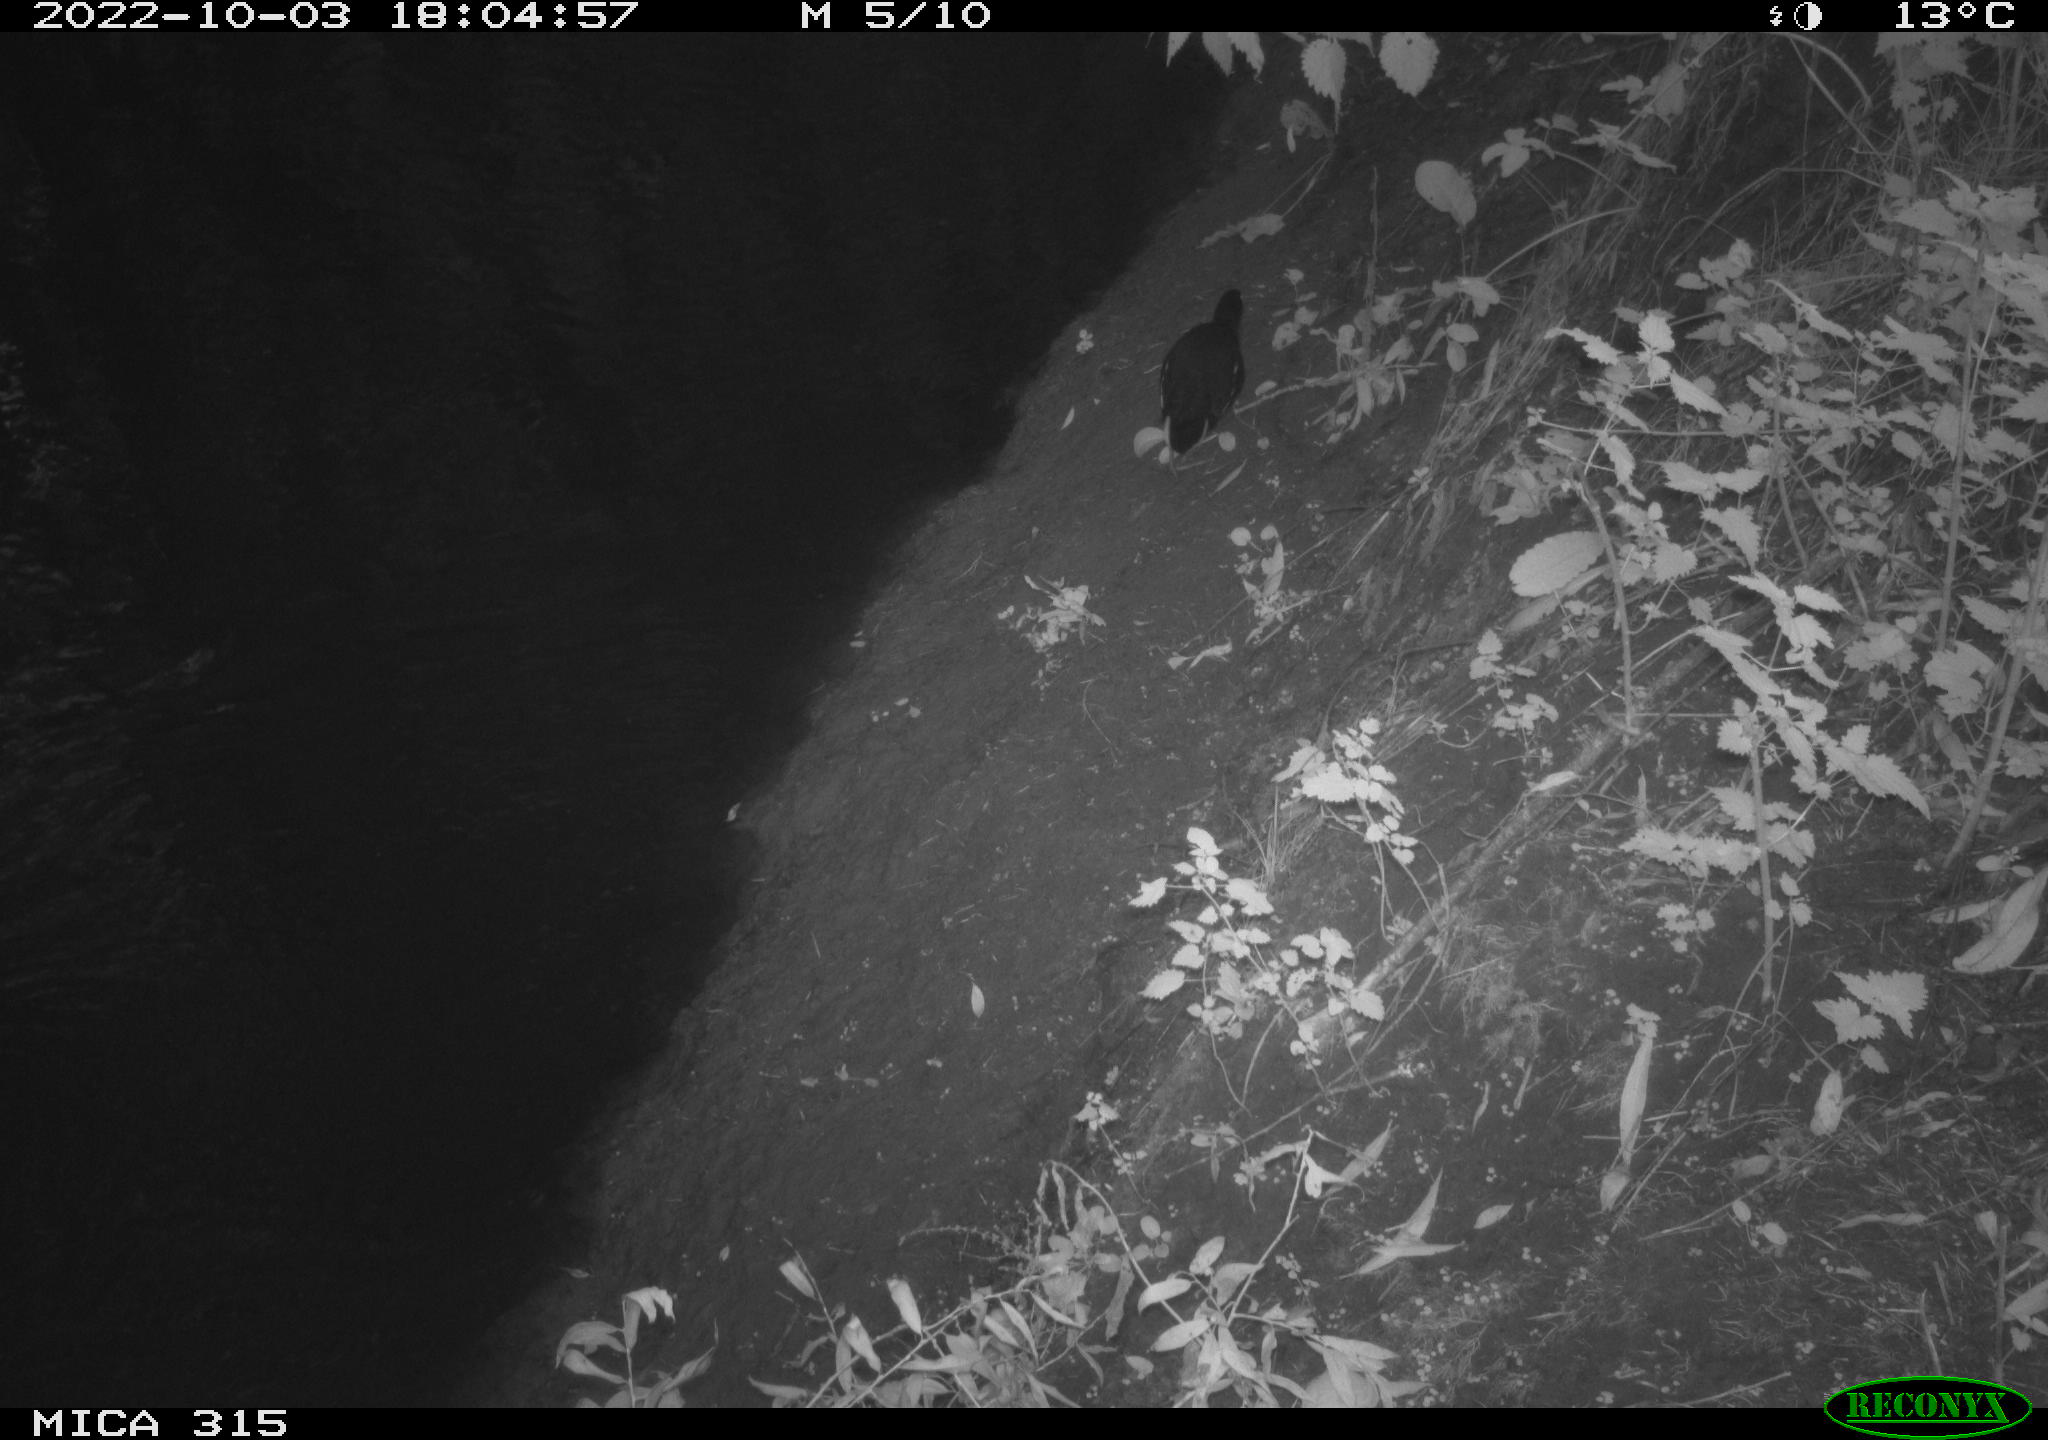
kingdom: Animalia
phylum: Chordata
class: Aves
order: Anseriformes
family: Anatidae
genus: Anas
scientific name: Anas
